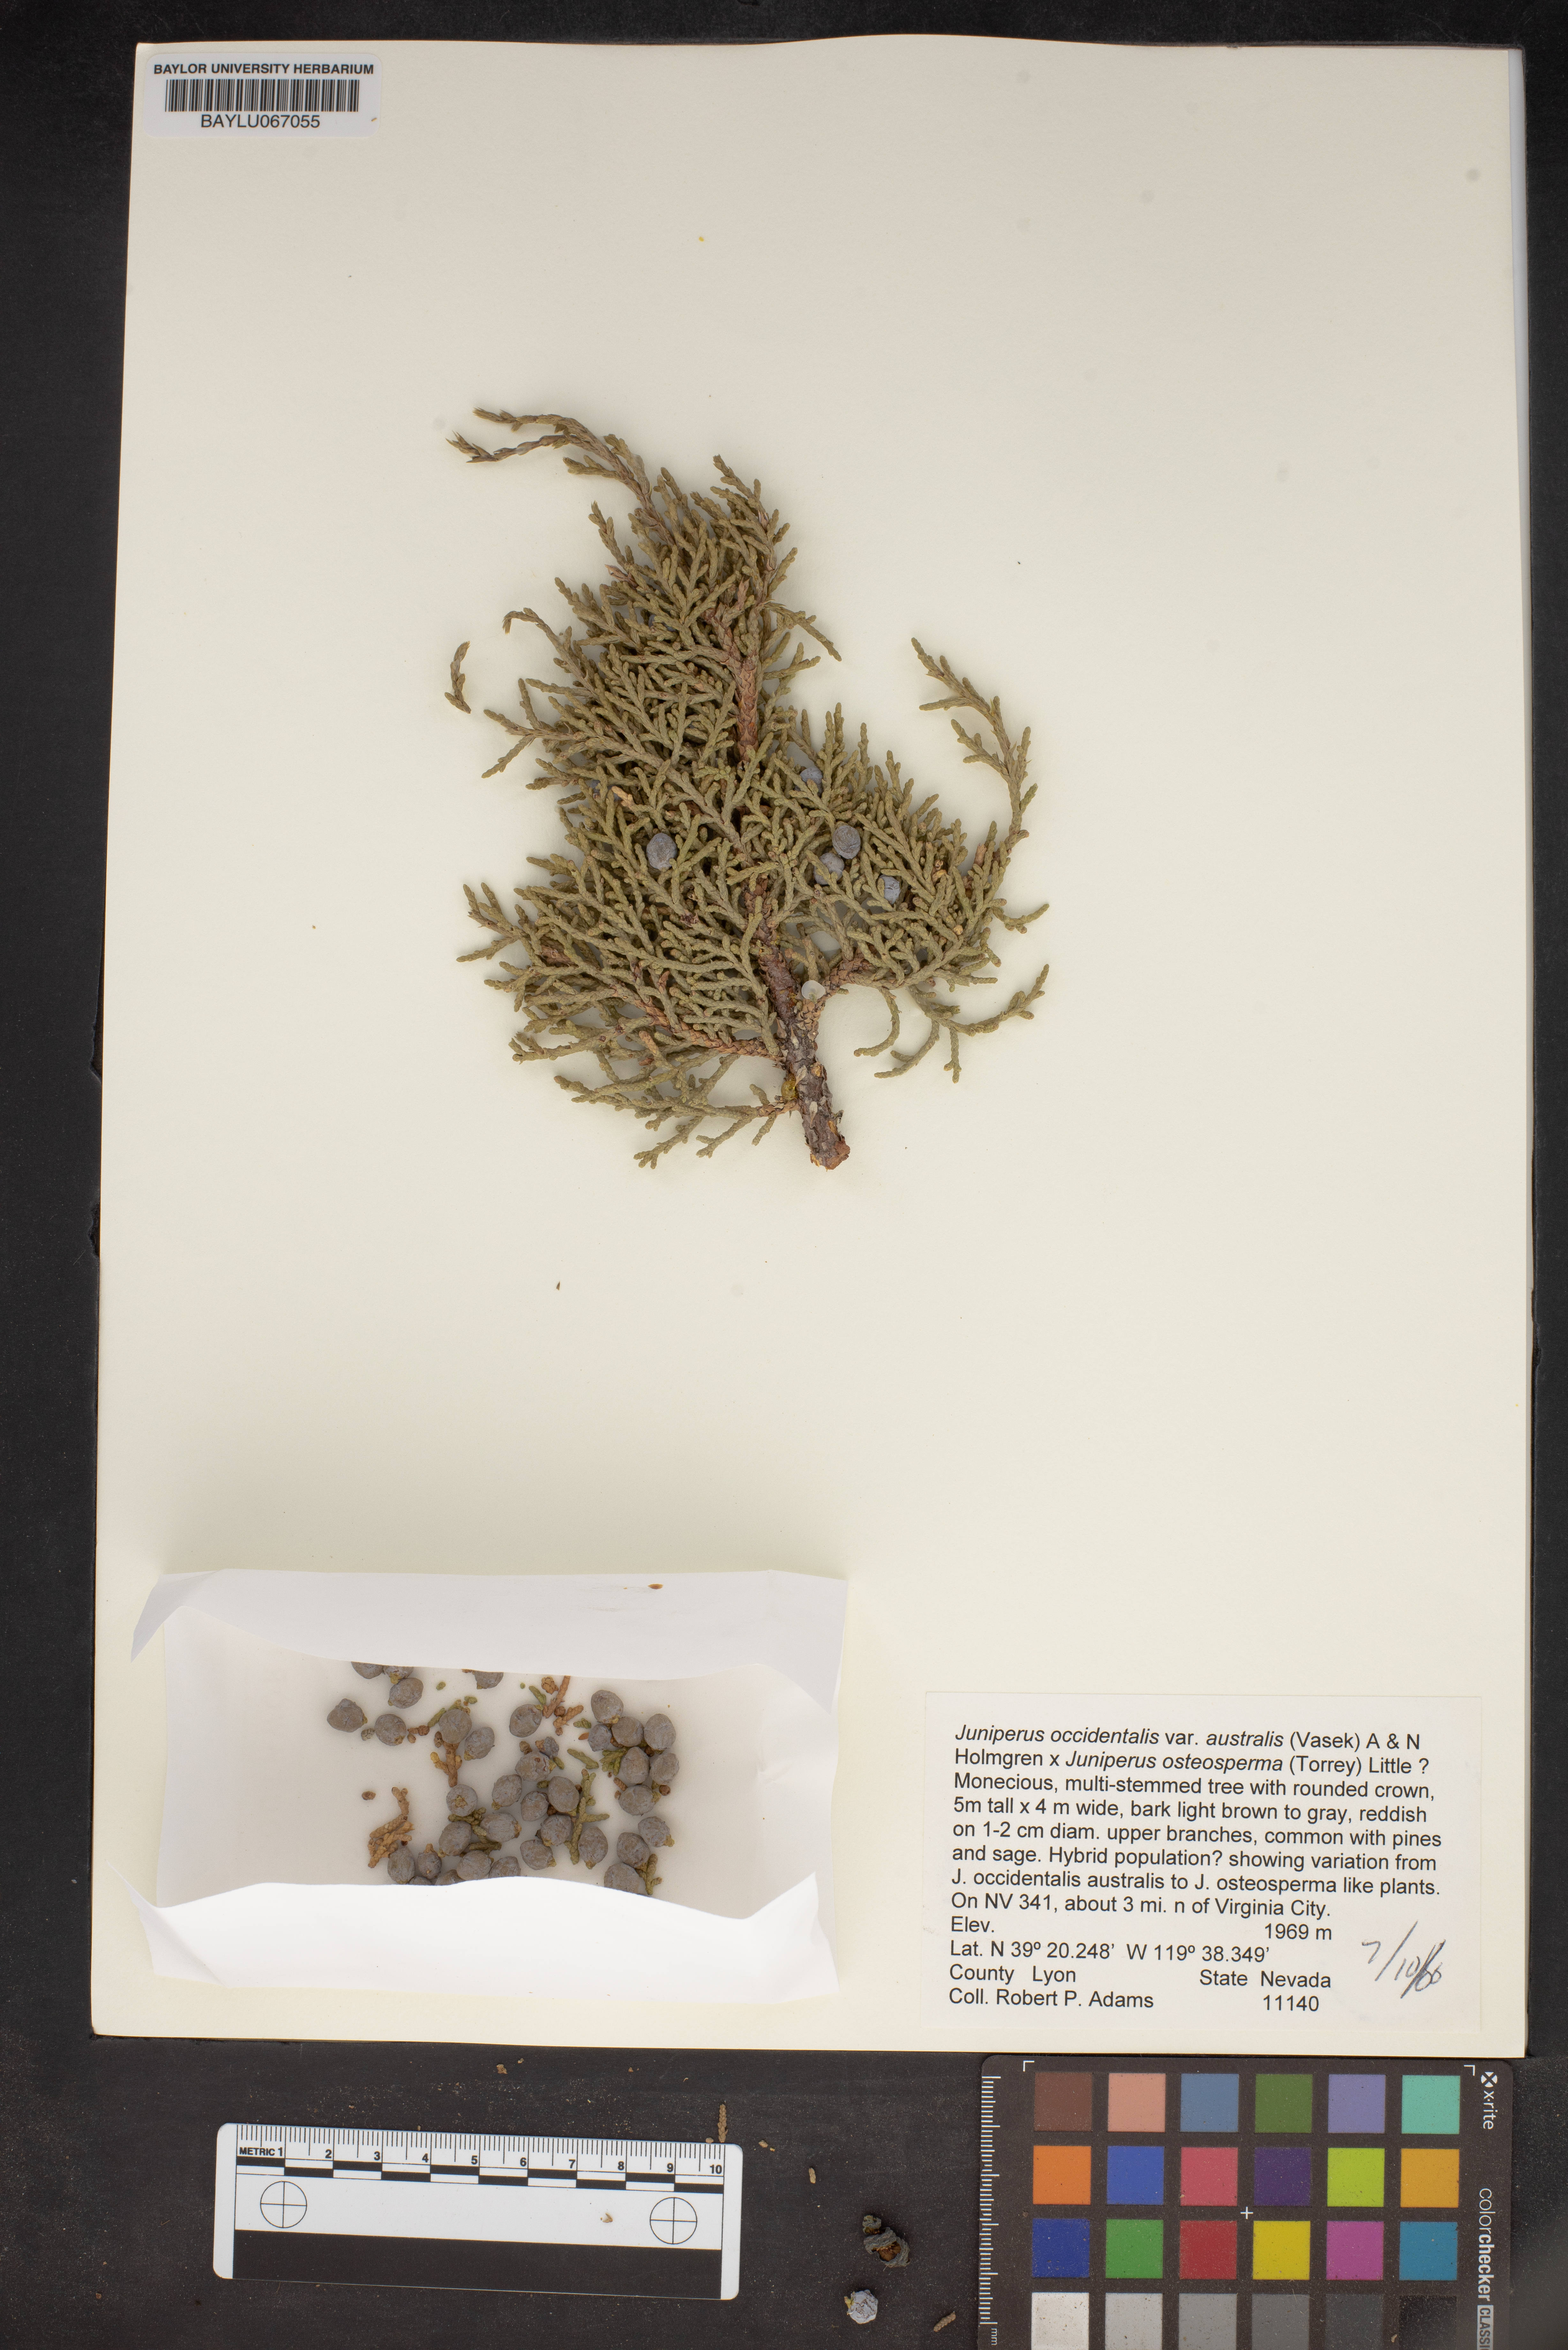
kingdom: Plantae
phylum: Tracheophyta
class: Pinopsida
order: Pinales
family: Cupressaceae
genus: Juniperus
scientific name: Juniperus occidentalis
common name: Western juniper
